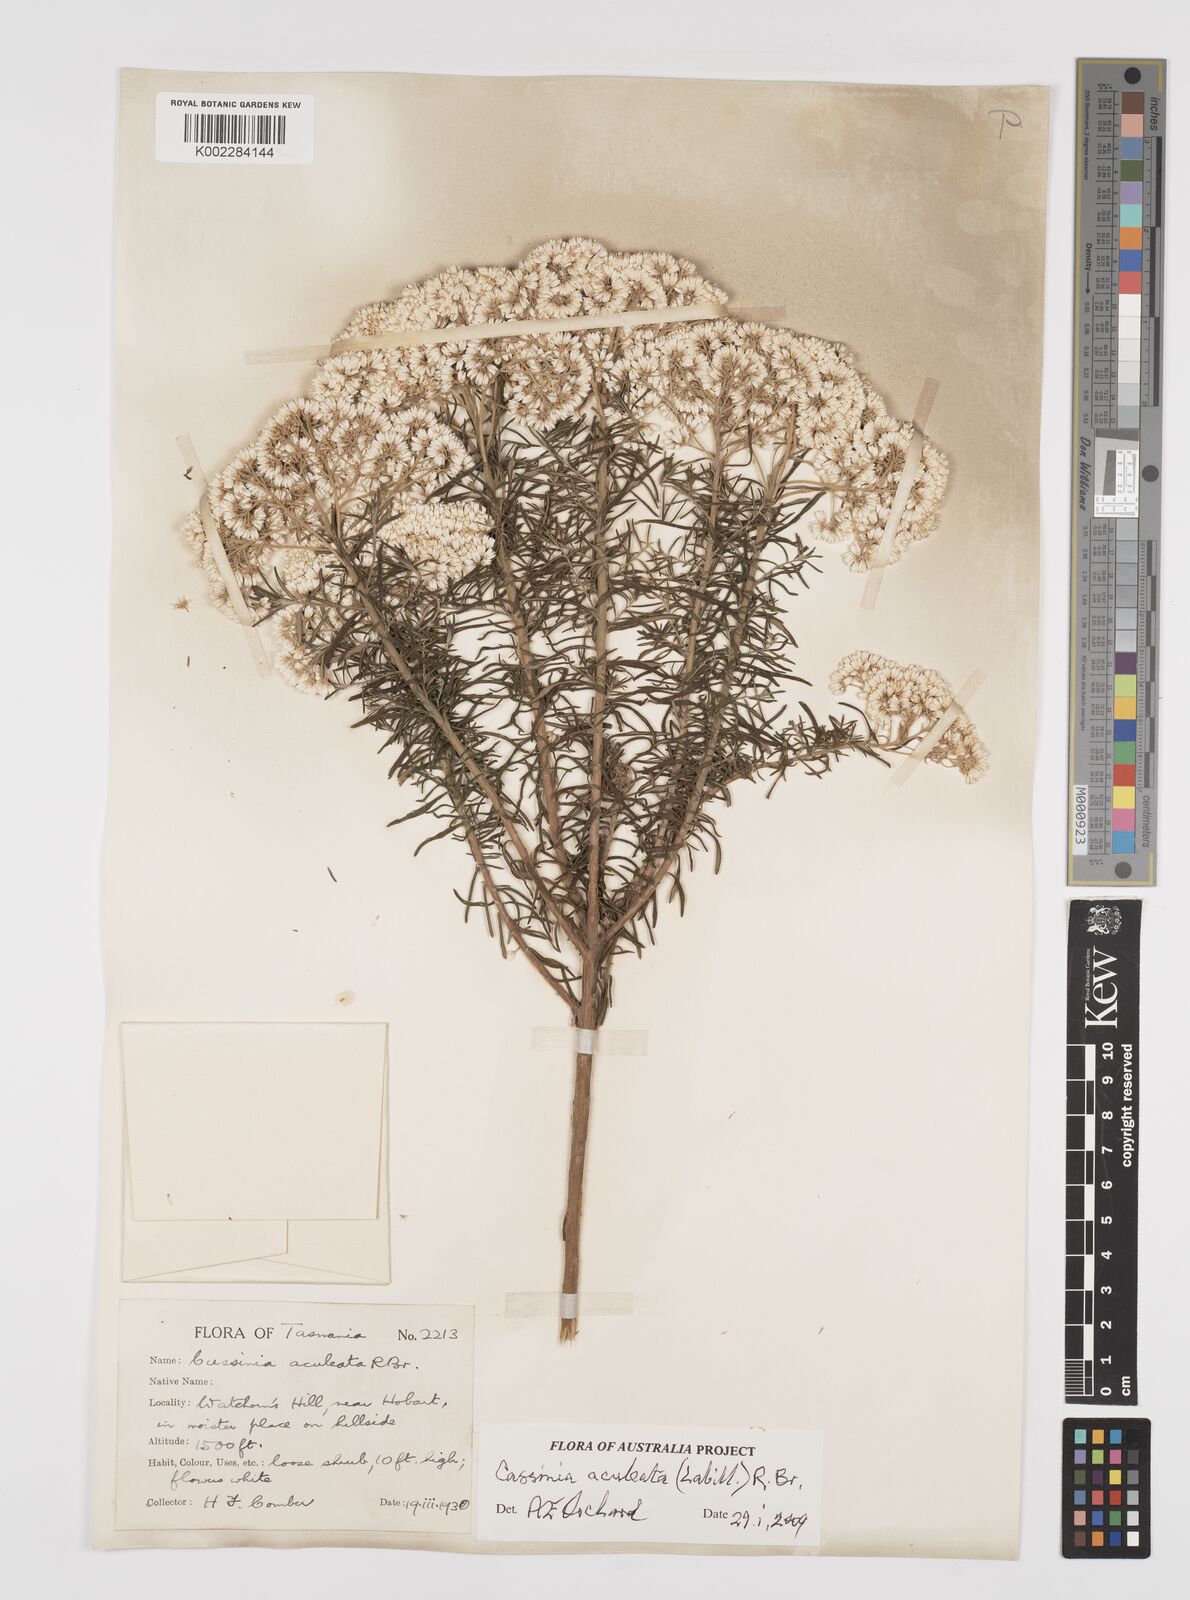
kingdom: Plantae
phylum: Tracheophyta
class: Magnoliopsida
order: Asterales
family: Asteraceae
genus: Cassinia
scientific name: Cassinia aculeata
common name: Australian tauhinu
